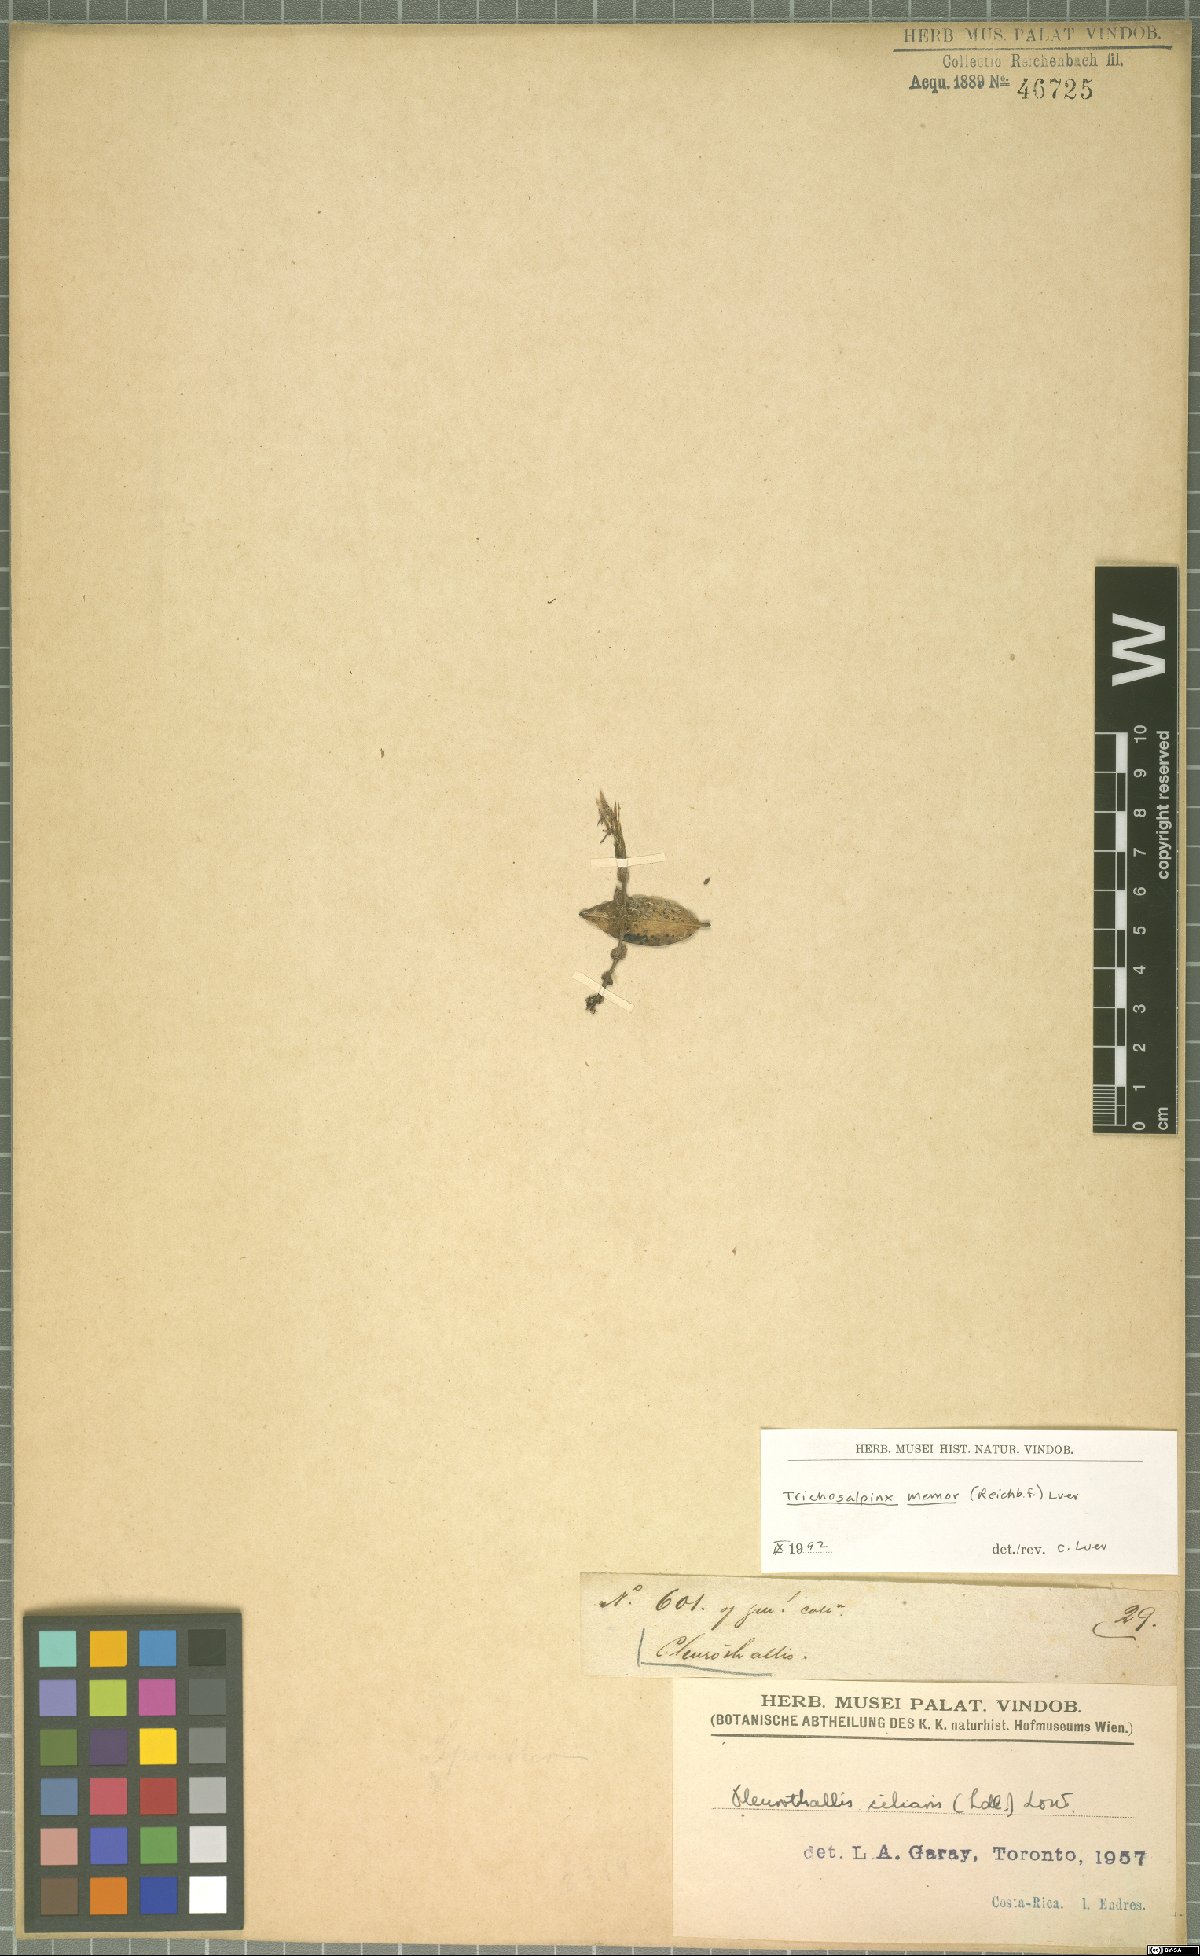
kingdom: Plantae
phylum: Tracheophyta
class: Liliopsida
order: Asparagales
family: Orchidaceae
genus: Trichosalpinx
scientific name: Trichosalpinx memor
